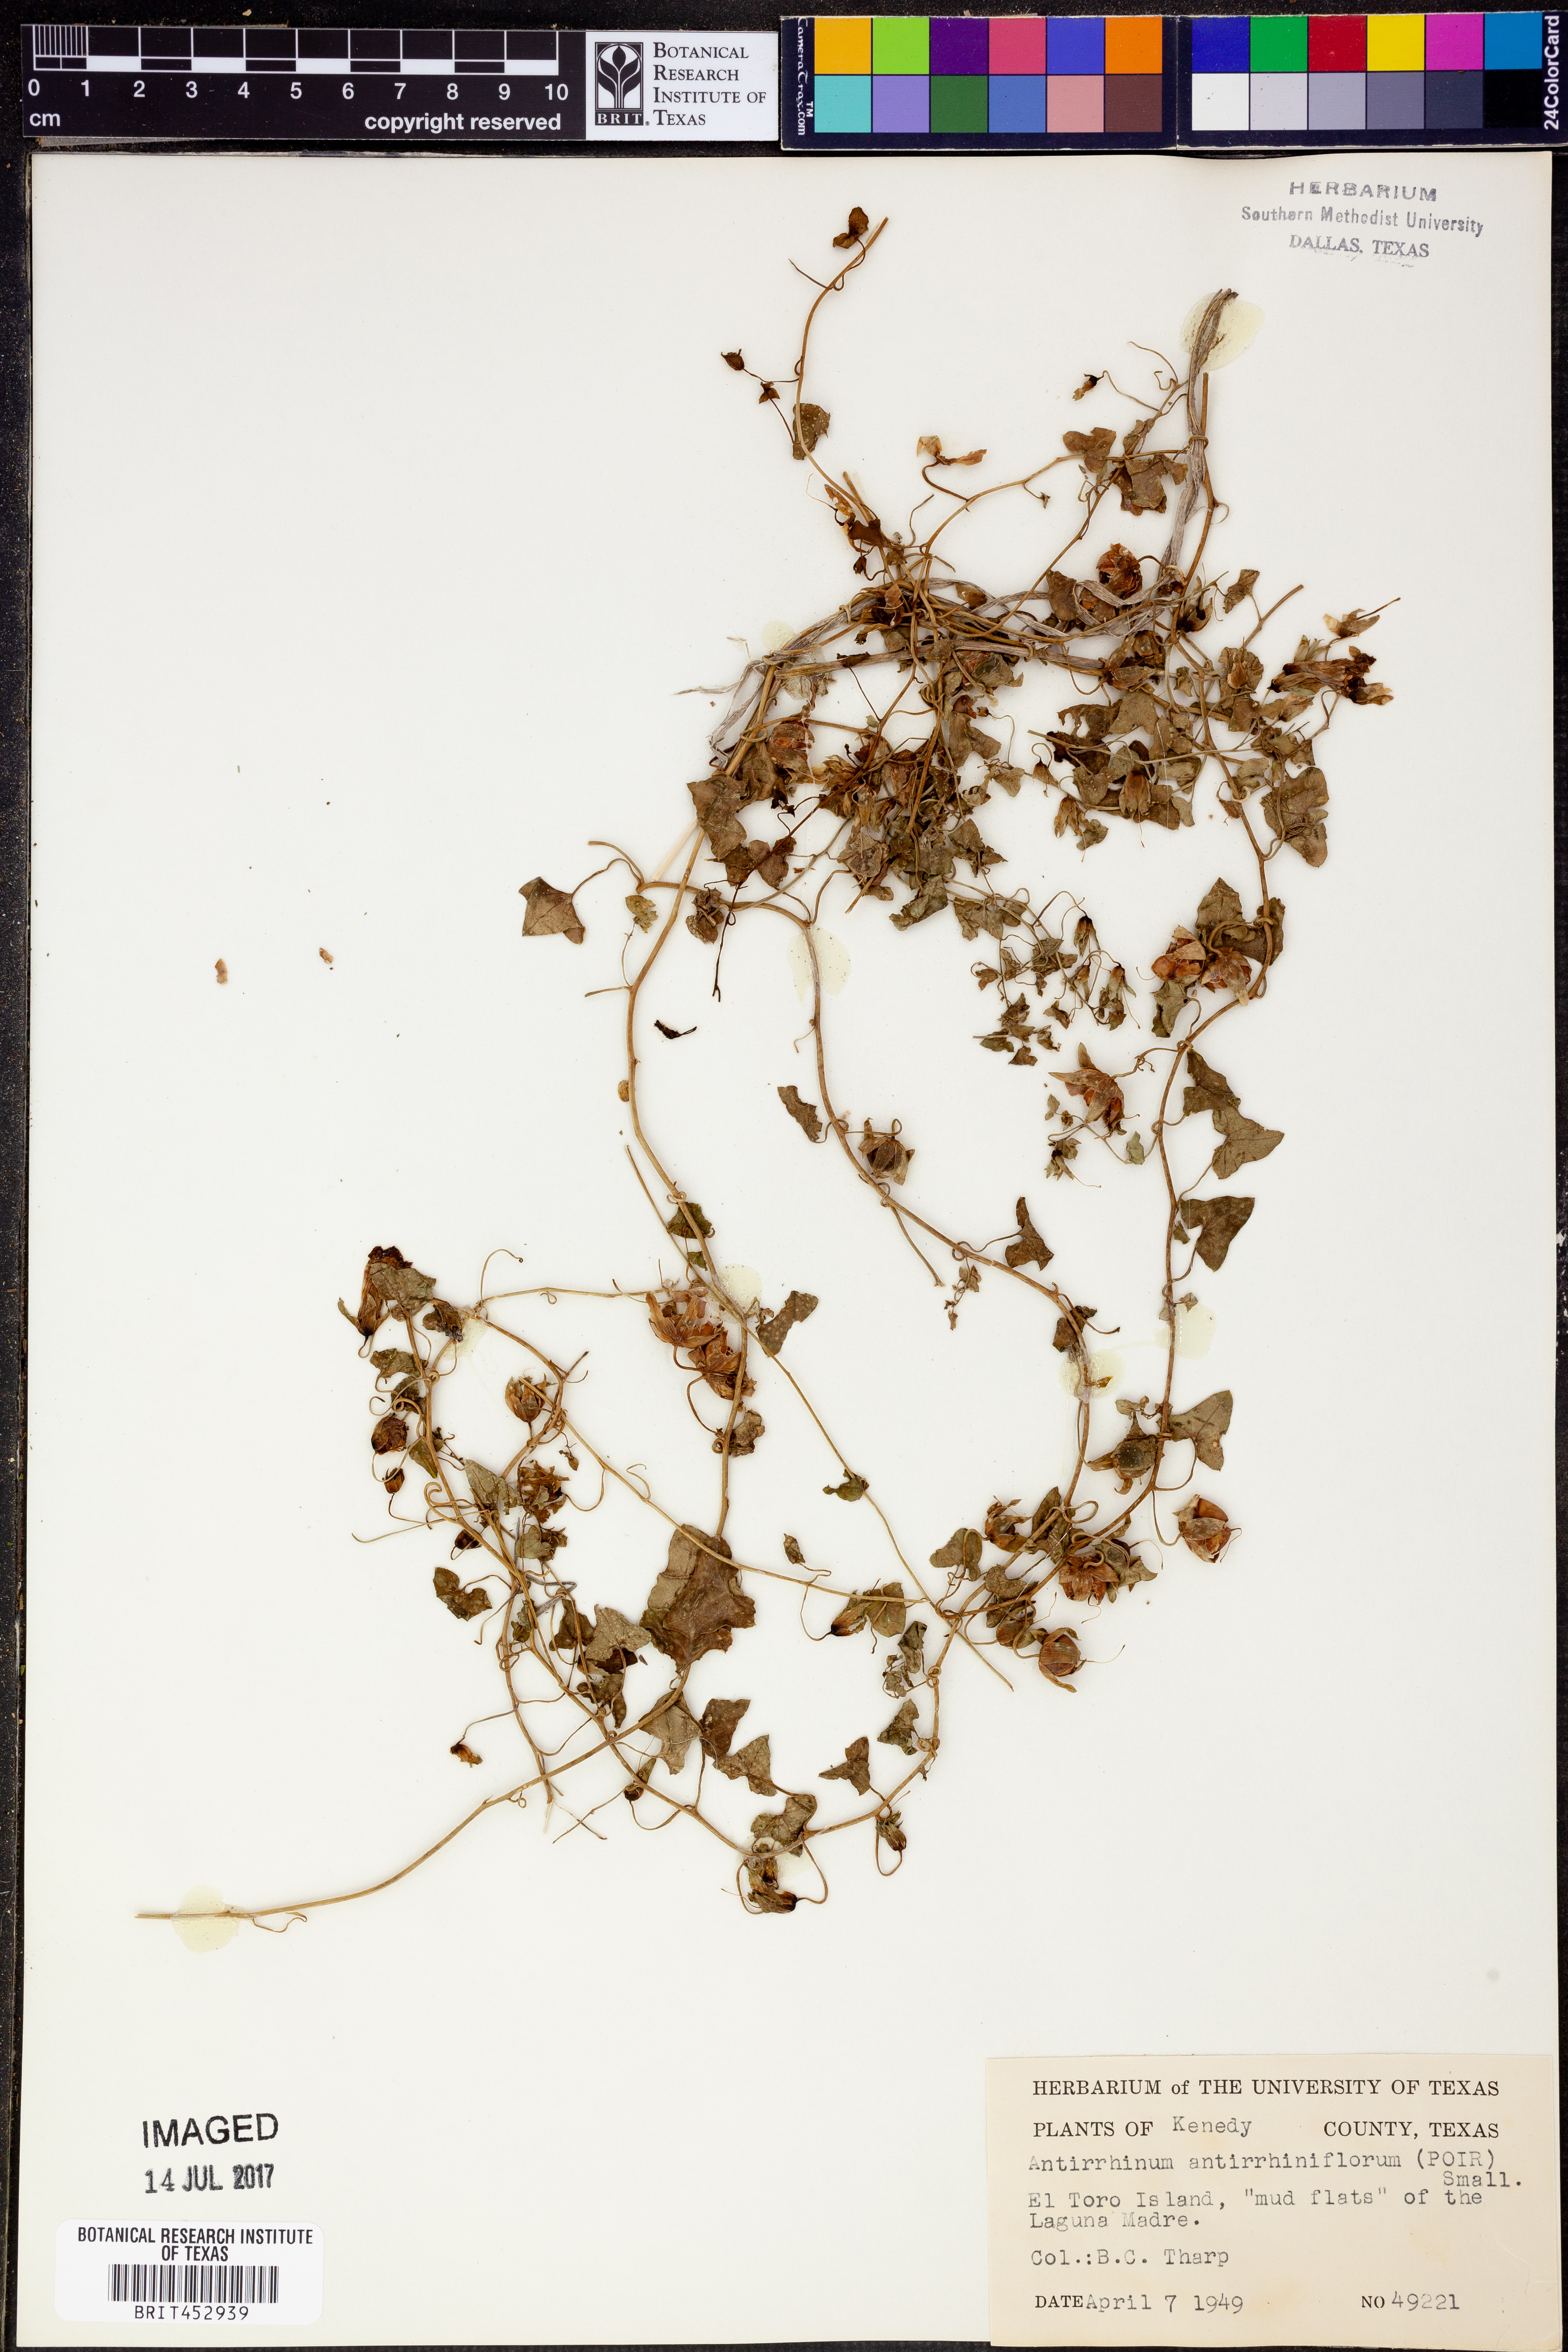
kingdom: Plantae
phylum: Tracheophyta
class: Magnoliopsida
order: Lamiales
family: Plantaginaceae
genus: Maurandella
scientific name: Maurandella antirrhiniflora
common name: Violet twining-snapdragon
